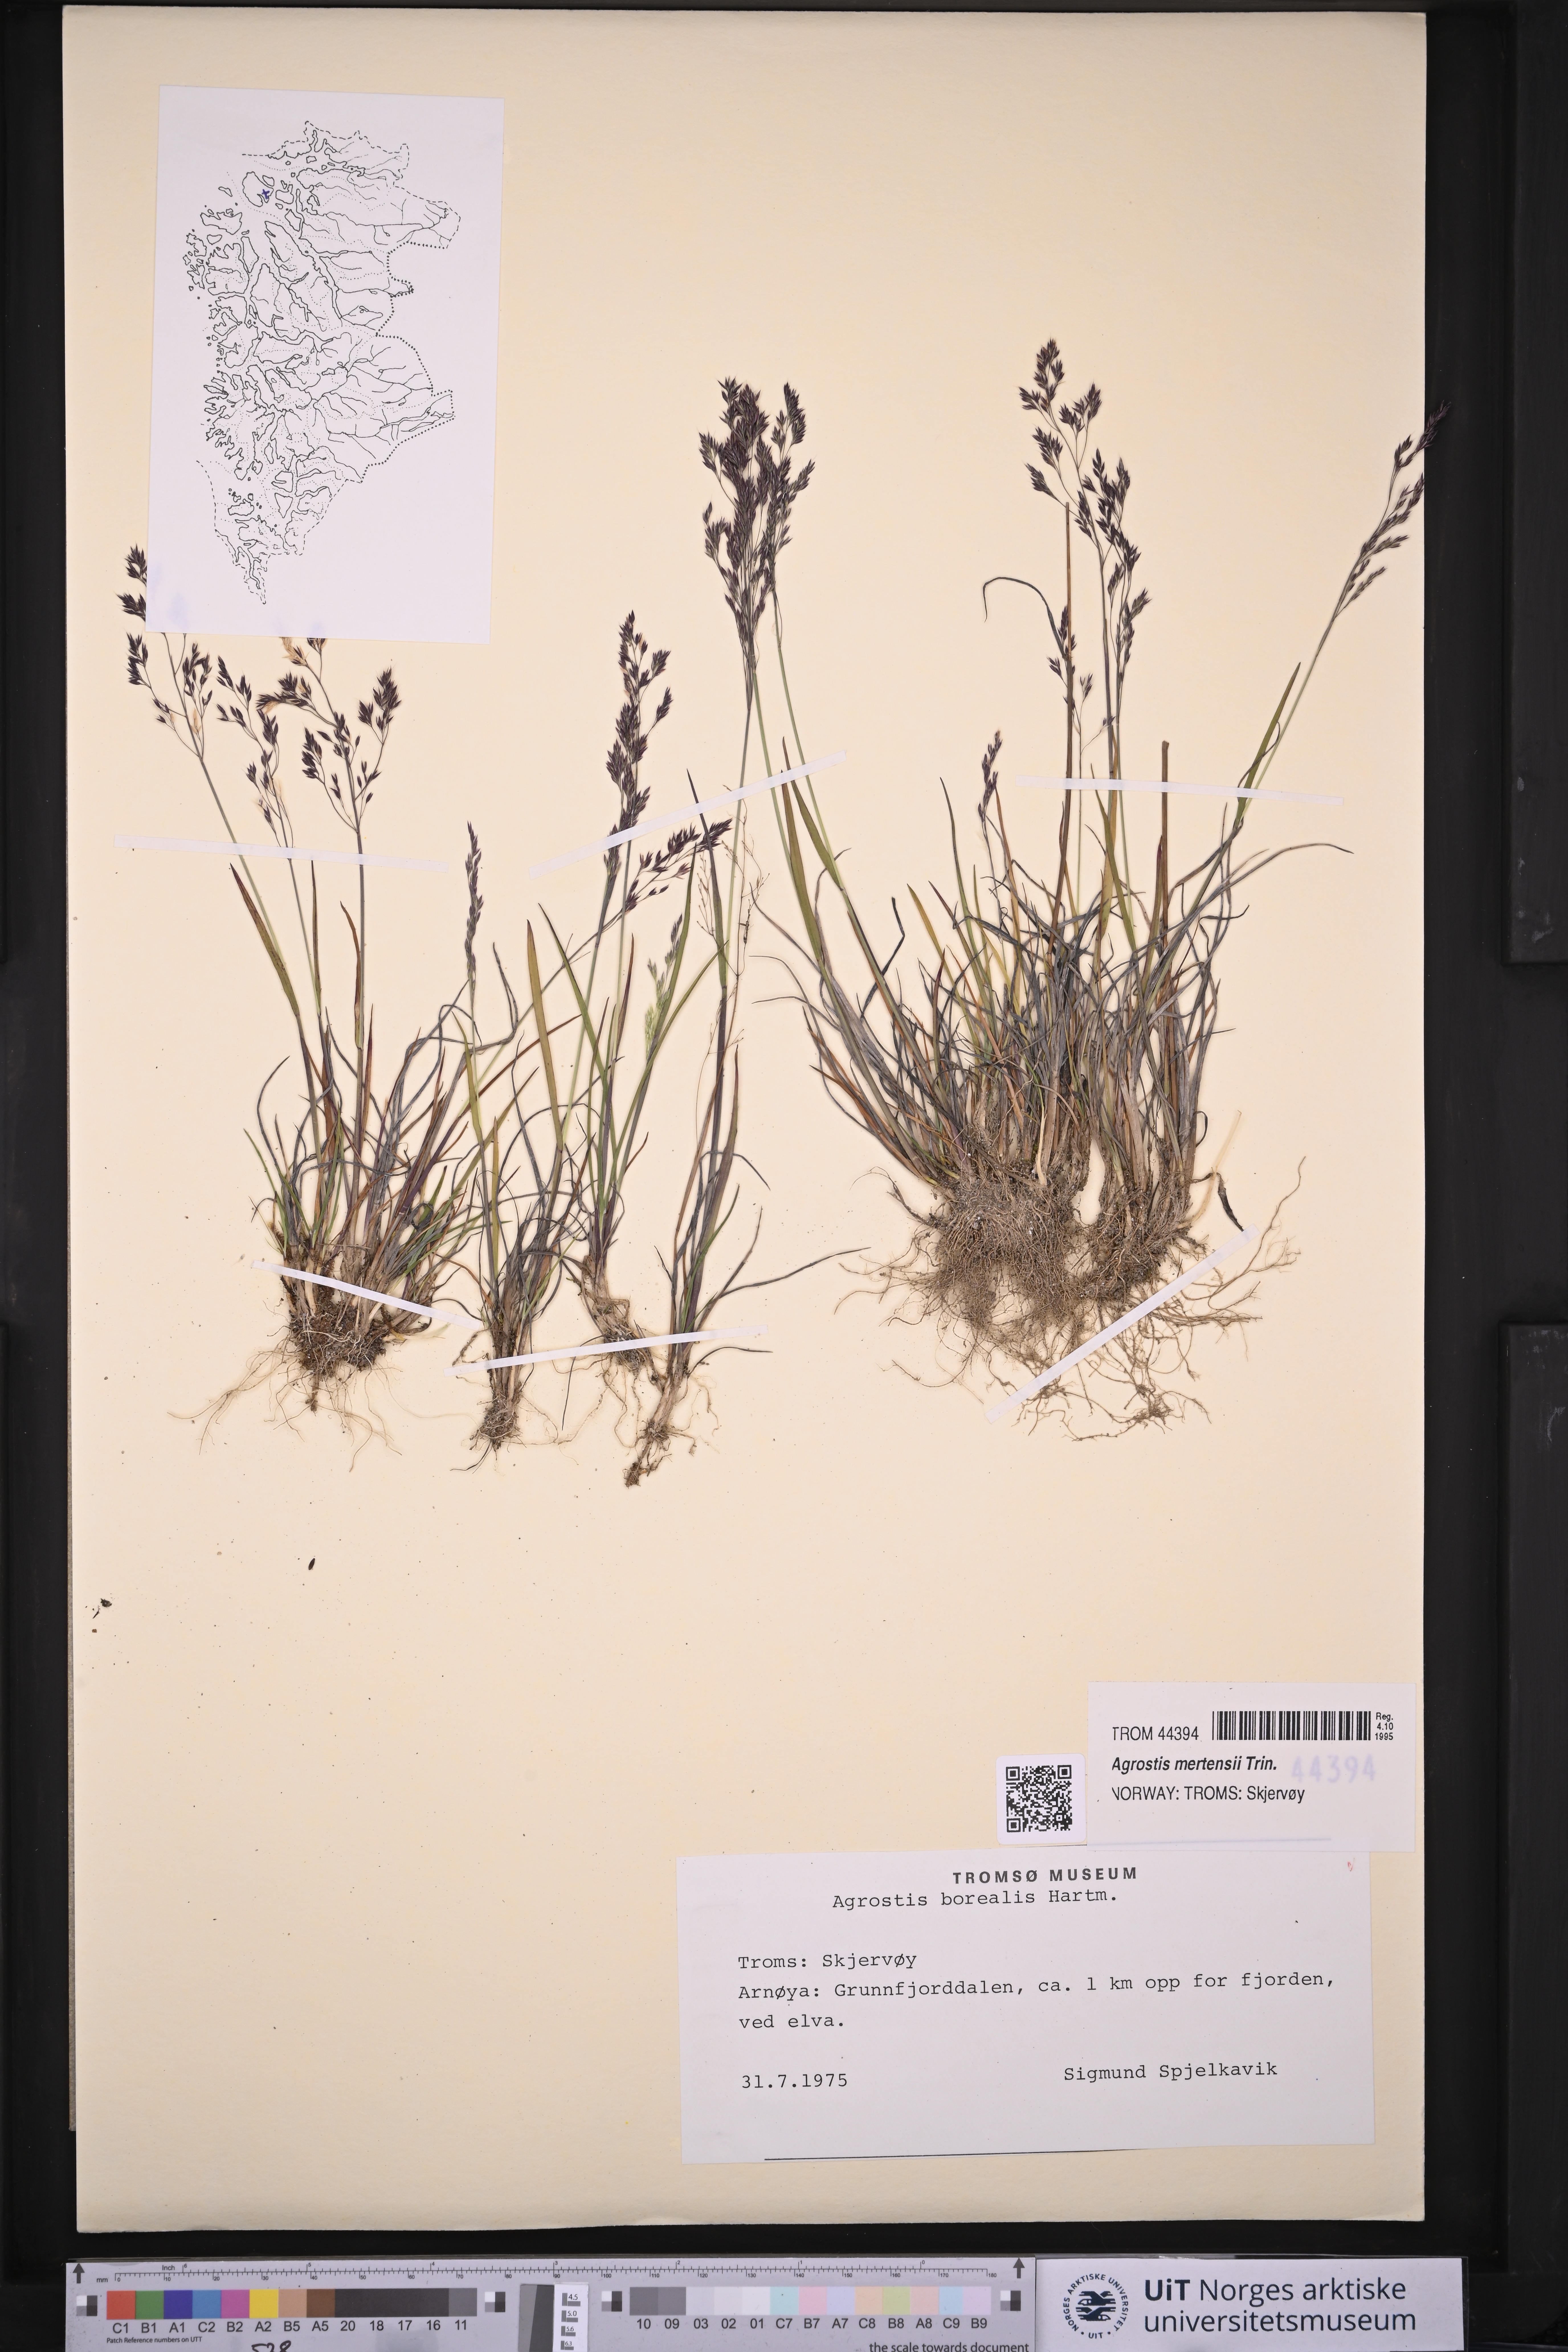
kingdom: Plantae
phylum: Tracheophyta
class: Liliopsida
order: Poales
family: Poaceae
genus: Agrostis
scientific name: Agrostis mertensii
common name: Northern bent
